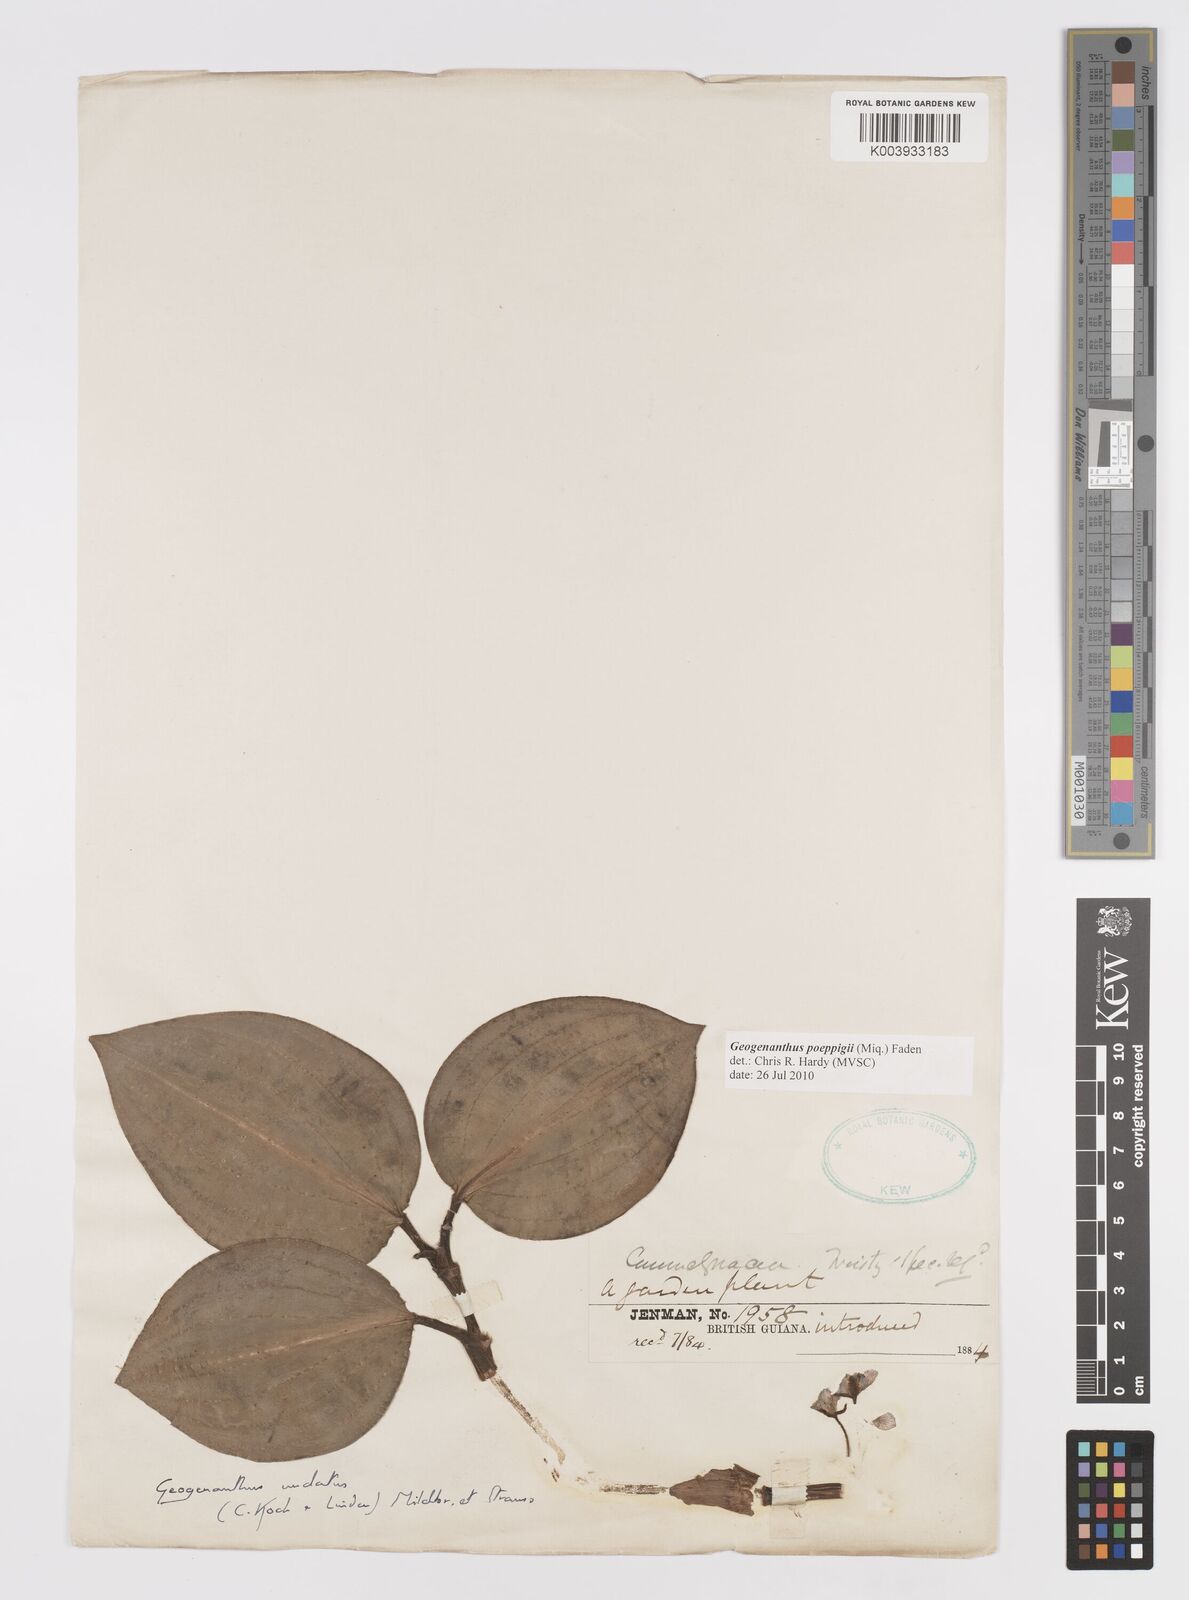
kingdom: Plantae
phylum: Tracheophyta
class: Liliopsida
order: Commelinales
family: Commelinaceae
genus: Geogenanthus
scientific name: Geogenanthus poeppigii
